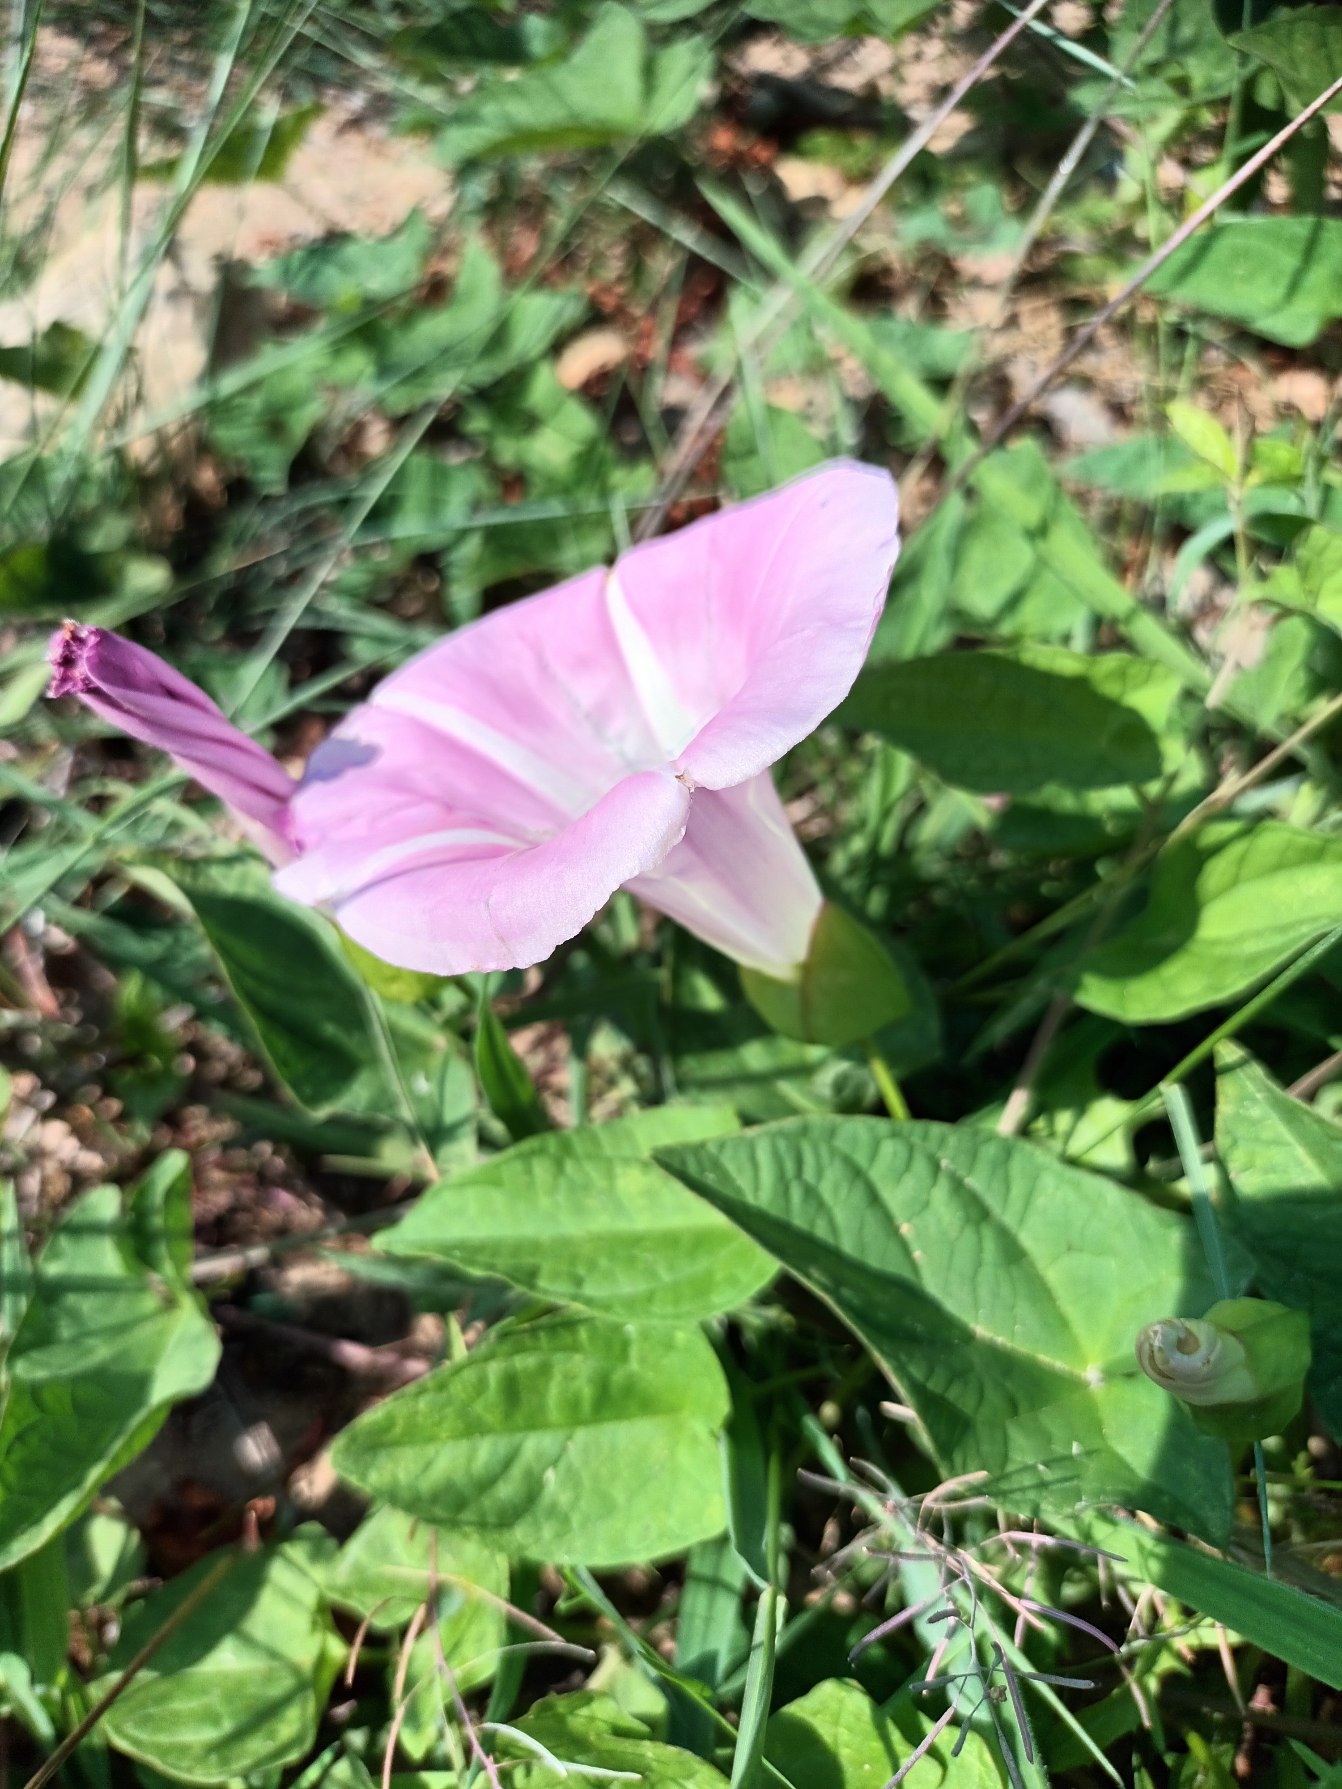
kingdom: Plantae
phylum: Tracheophyta
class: Magnoliopsida
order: Solanales
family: Convolvulaceae
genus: Calystegia
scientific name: Calystegia pulchra
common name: Have-snerle
